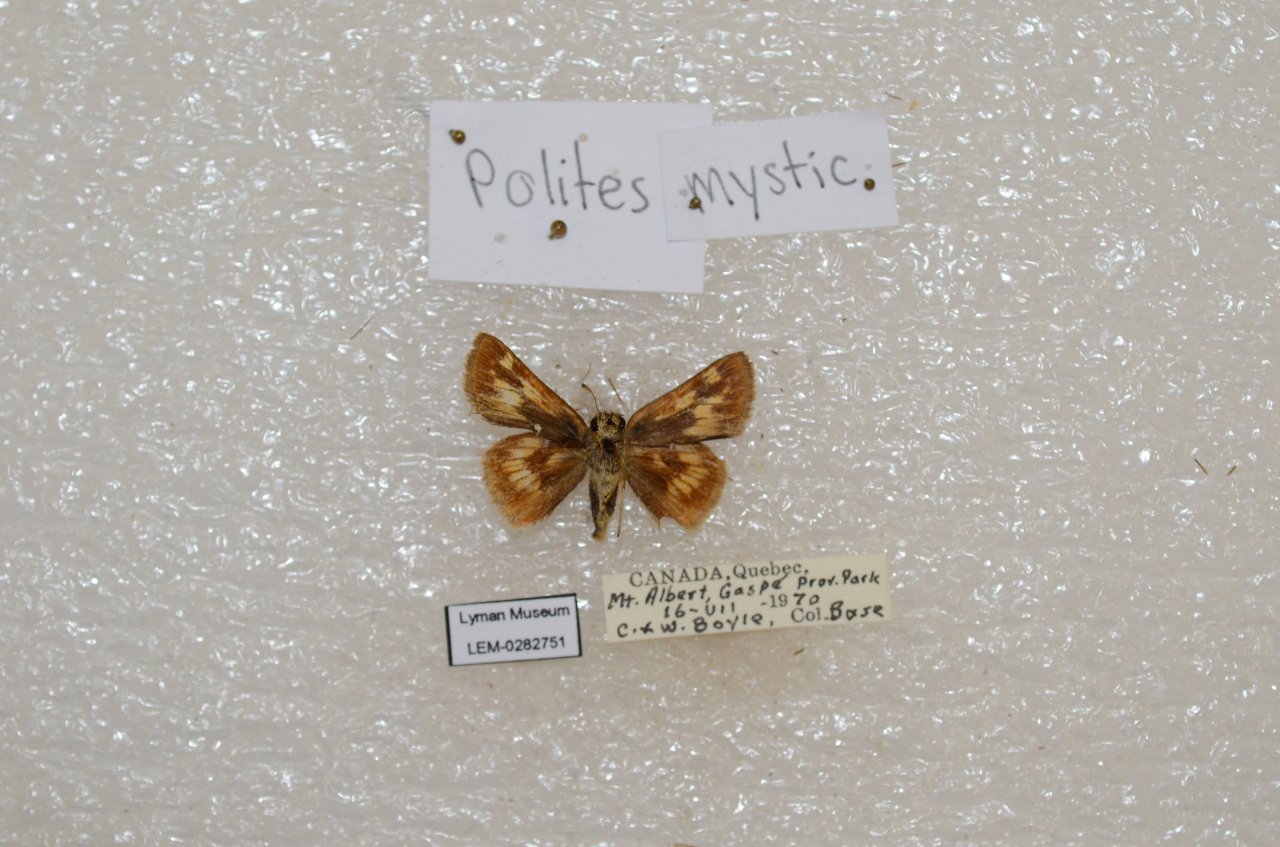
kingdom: Animalia
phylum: Arthropoda
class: Insecta
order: Lepidoptera
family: Hesperiidae
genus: Polites
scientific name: Polites
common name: Long Dash Skipper
